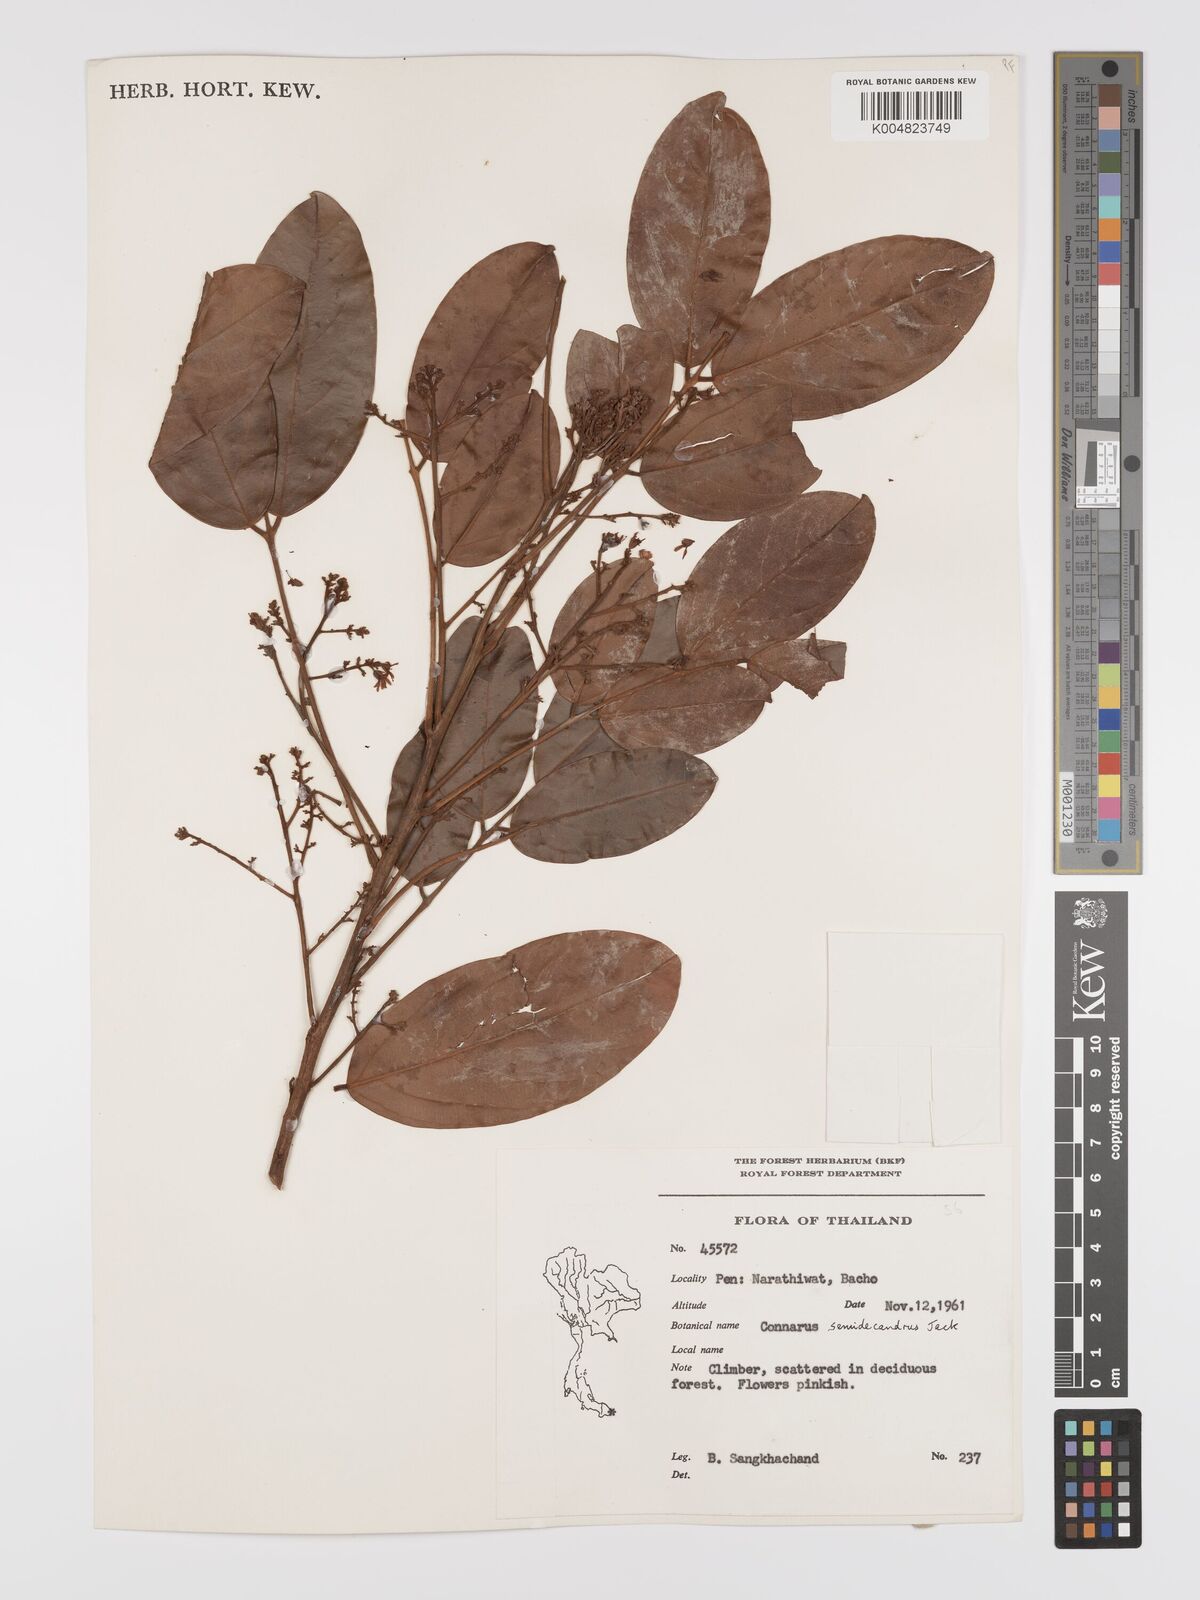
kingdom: Plantae
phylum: Tracheophyta
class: Magnoliopsida
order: Oxalidales
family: Connaraceae
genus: Connarus
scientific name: Connarus semidecandrus
